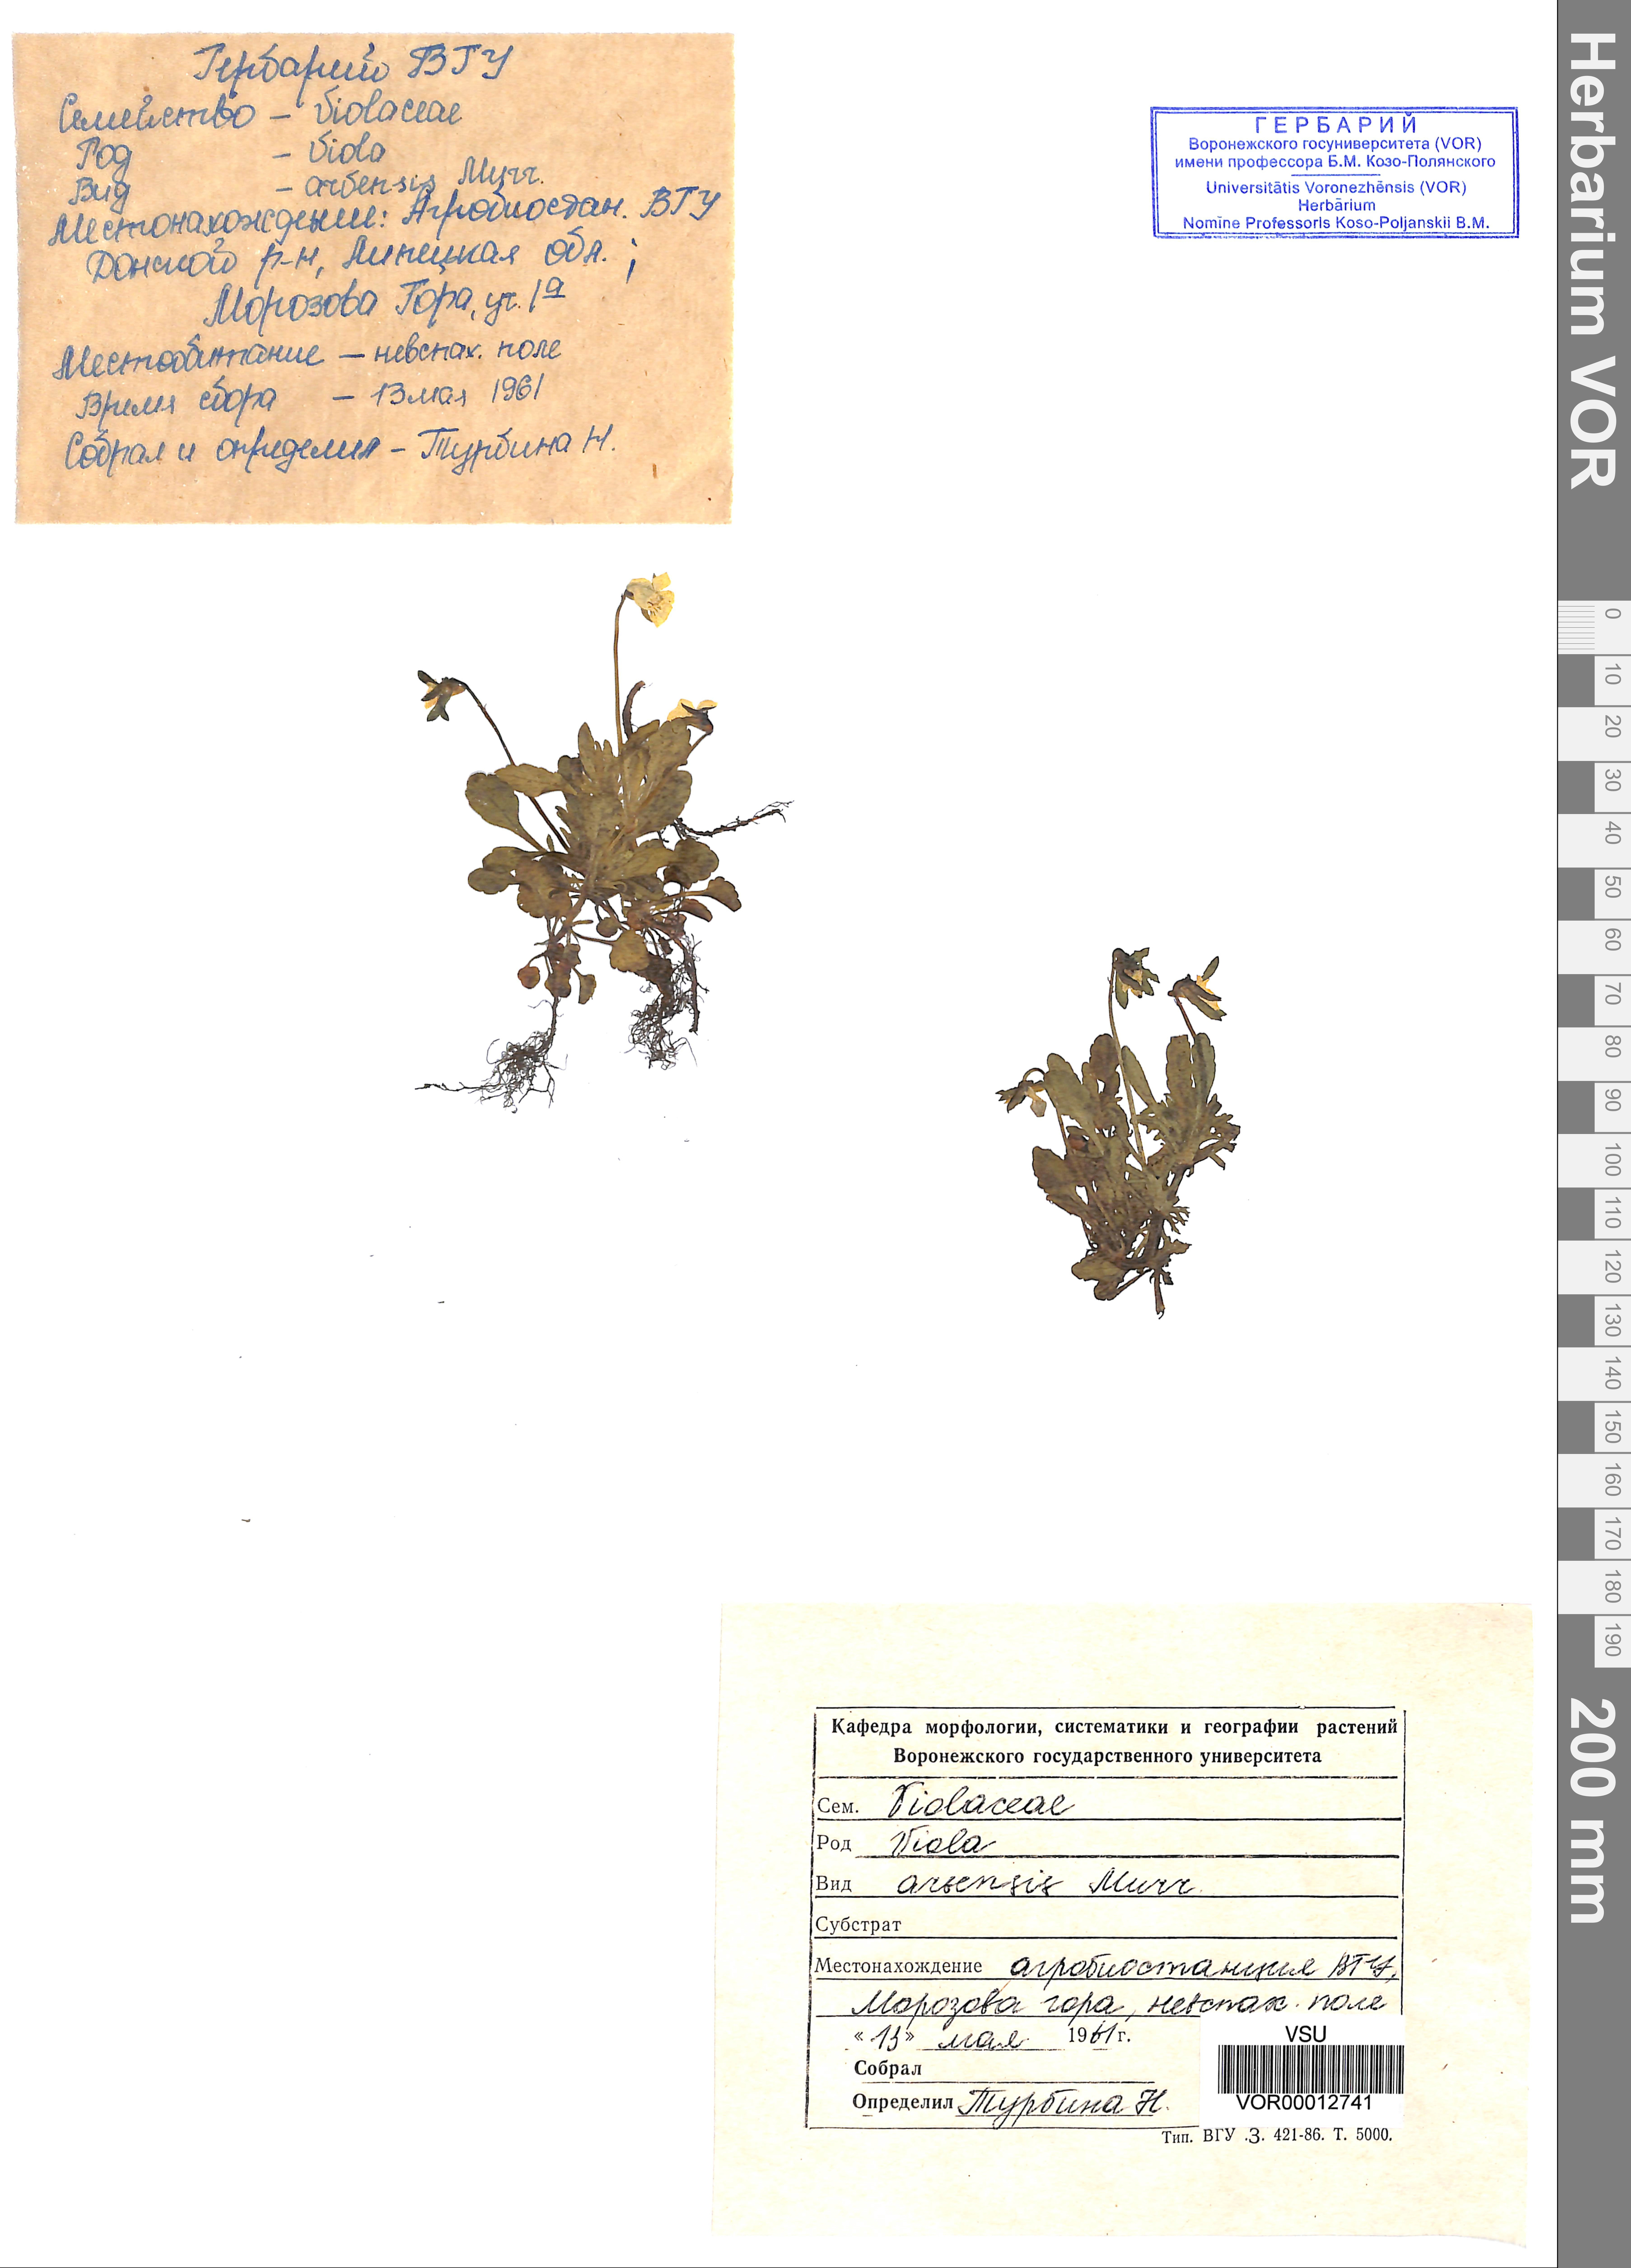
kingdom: Plantae
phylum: Tracheophyta
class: Magnoliopsida
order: Malpighiales
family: Violaceae
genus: Viola
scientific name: Viola arvensis
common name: Field pansy
